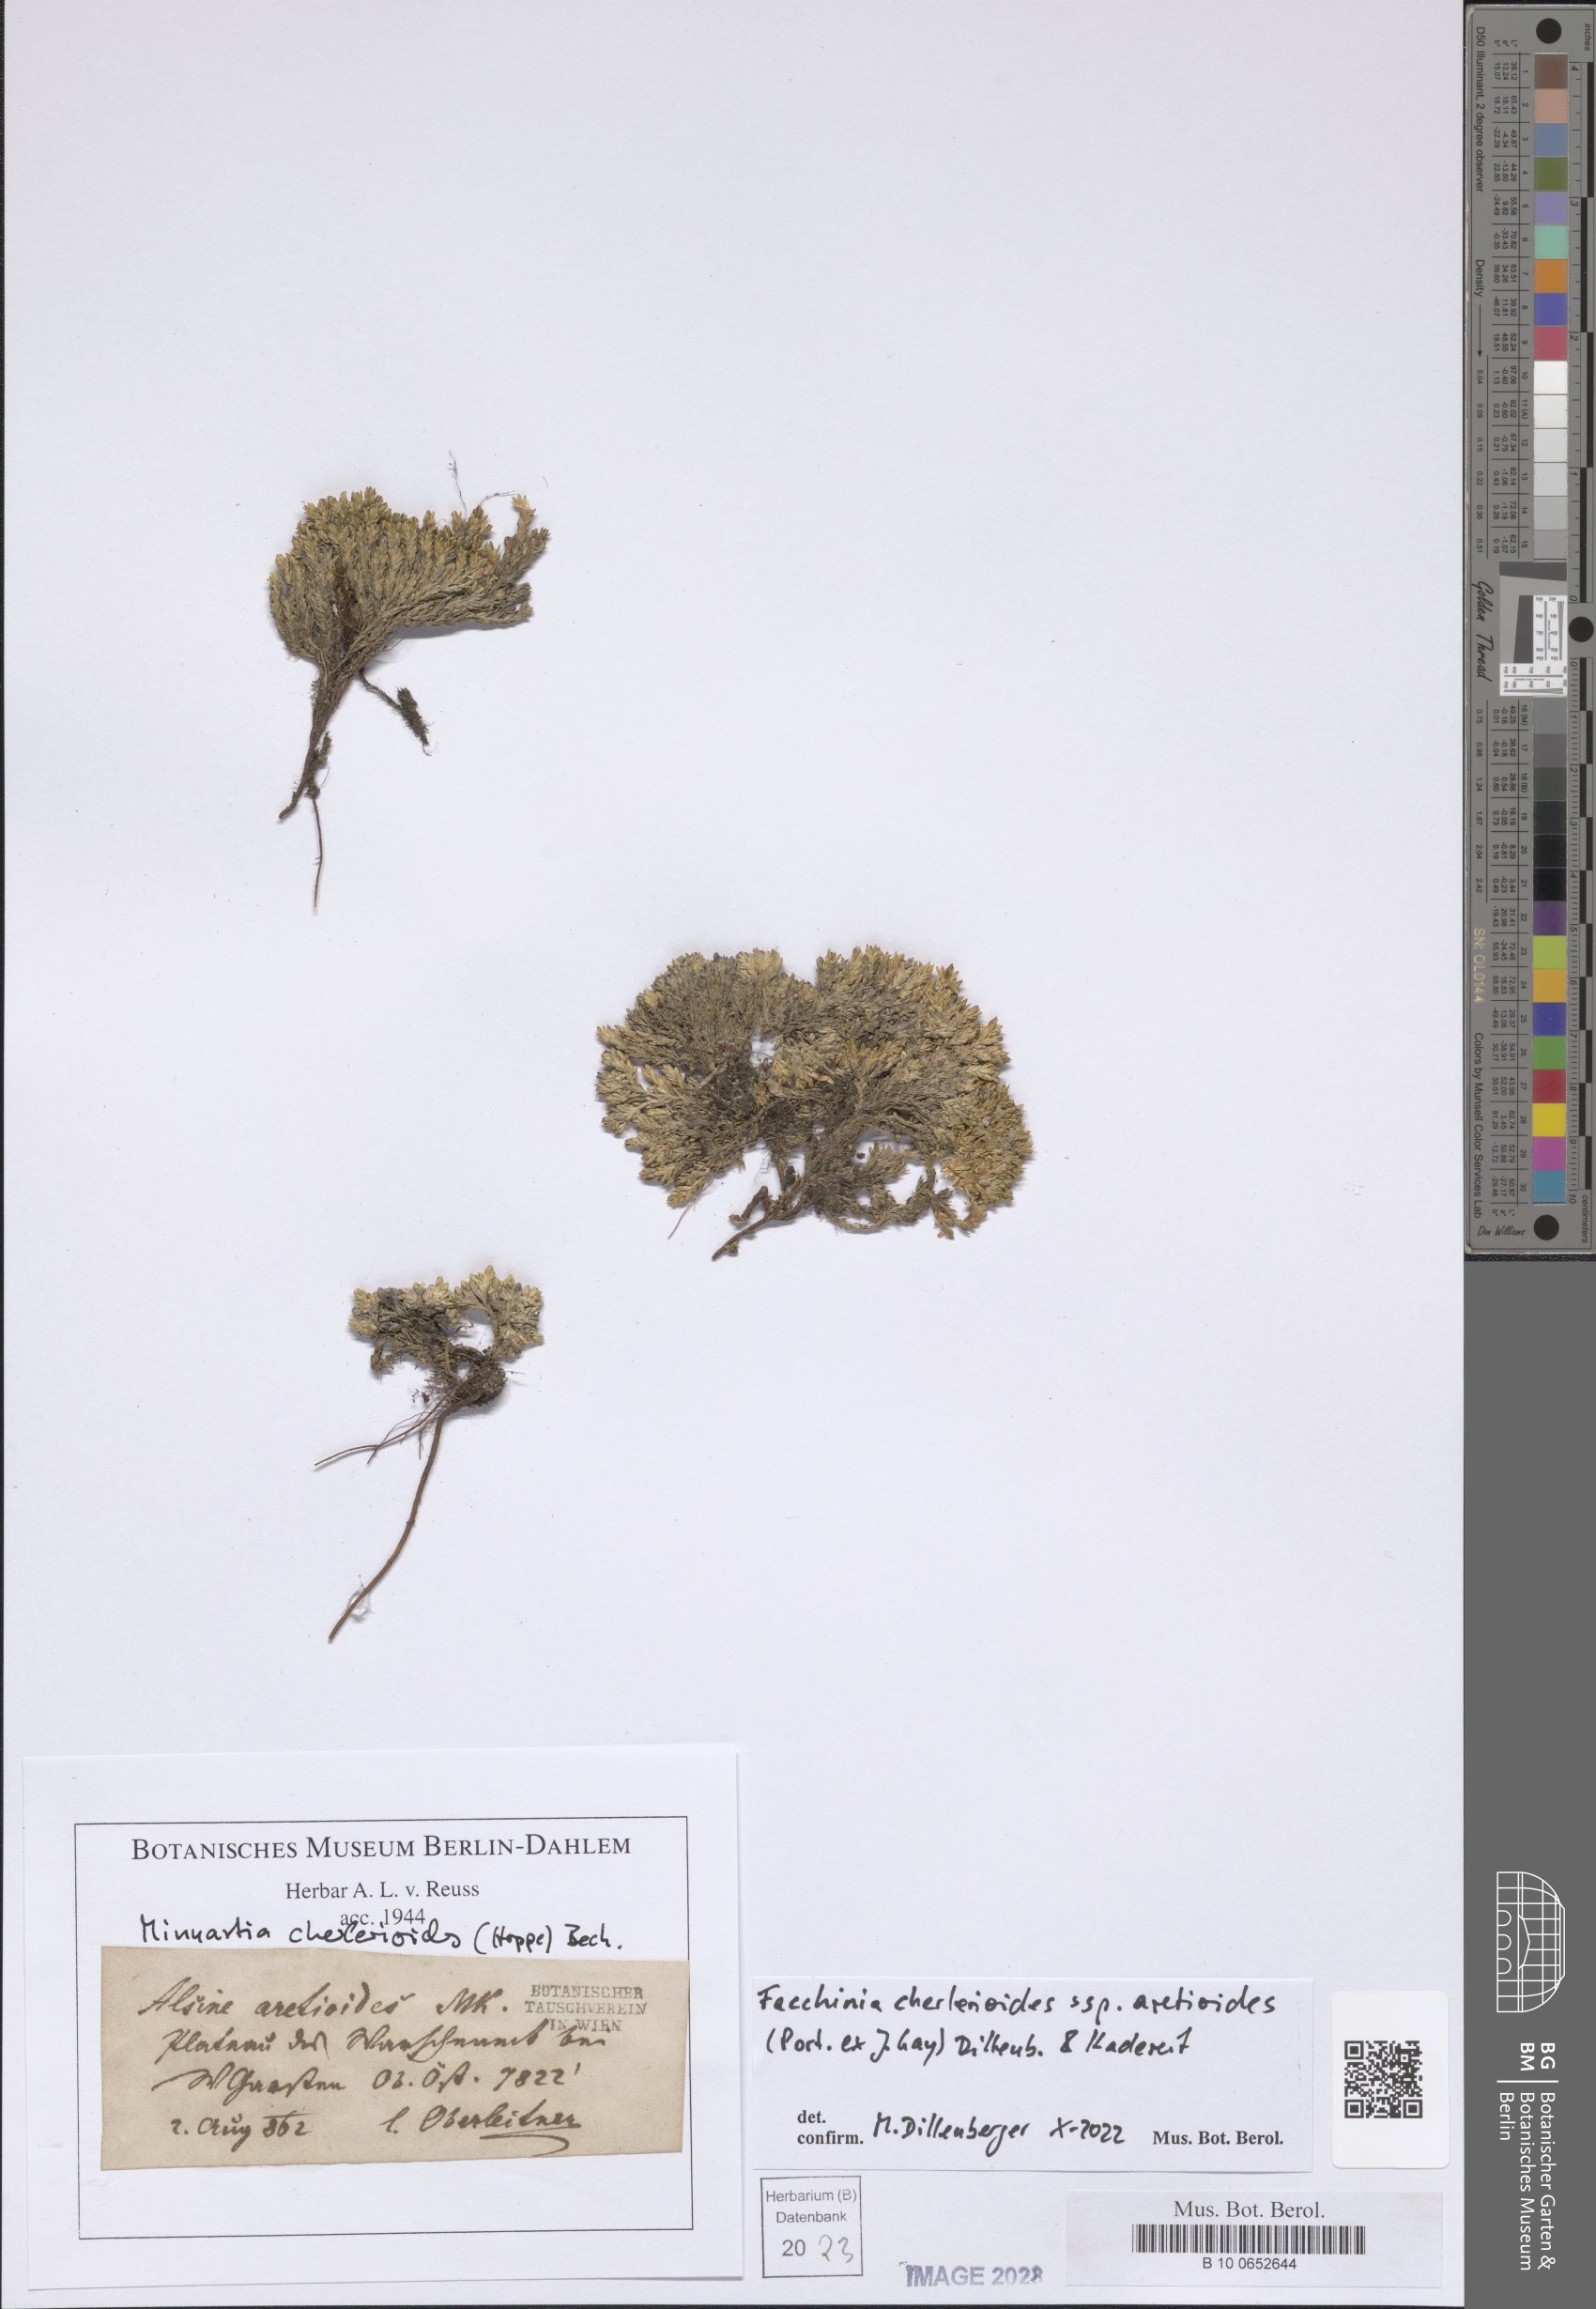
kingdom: Plantae
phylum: Tracheophyta
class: Magnoliopsida
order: Caryophyllales
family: Caryophyllaceae
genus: Facchinia
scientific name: Facchinia cherlerioides
